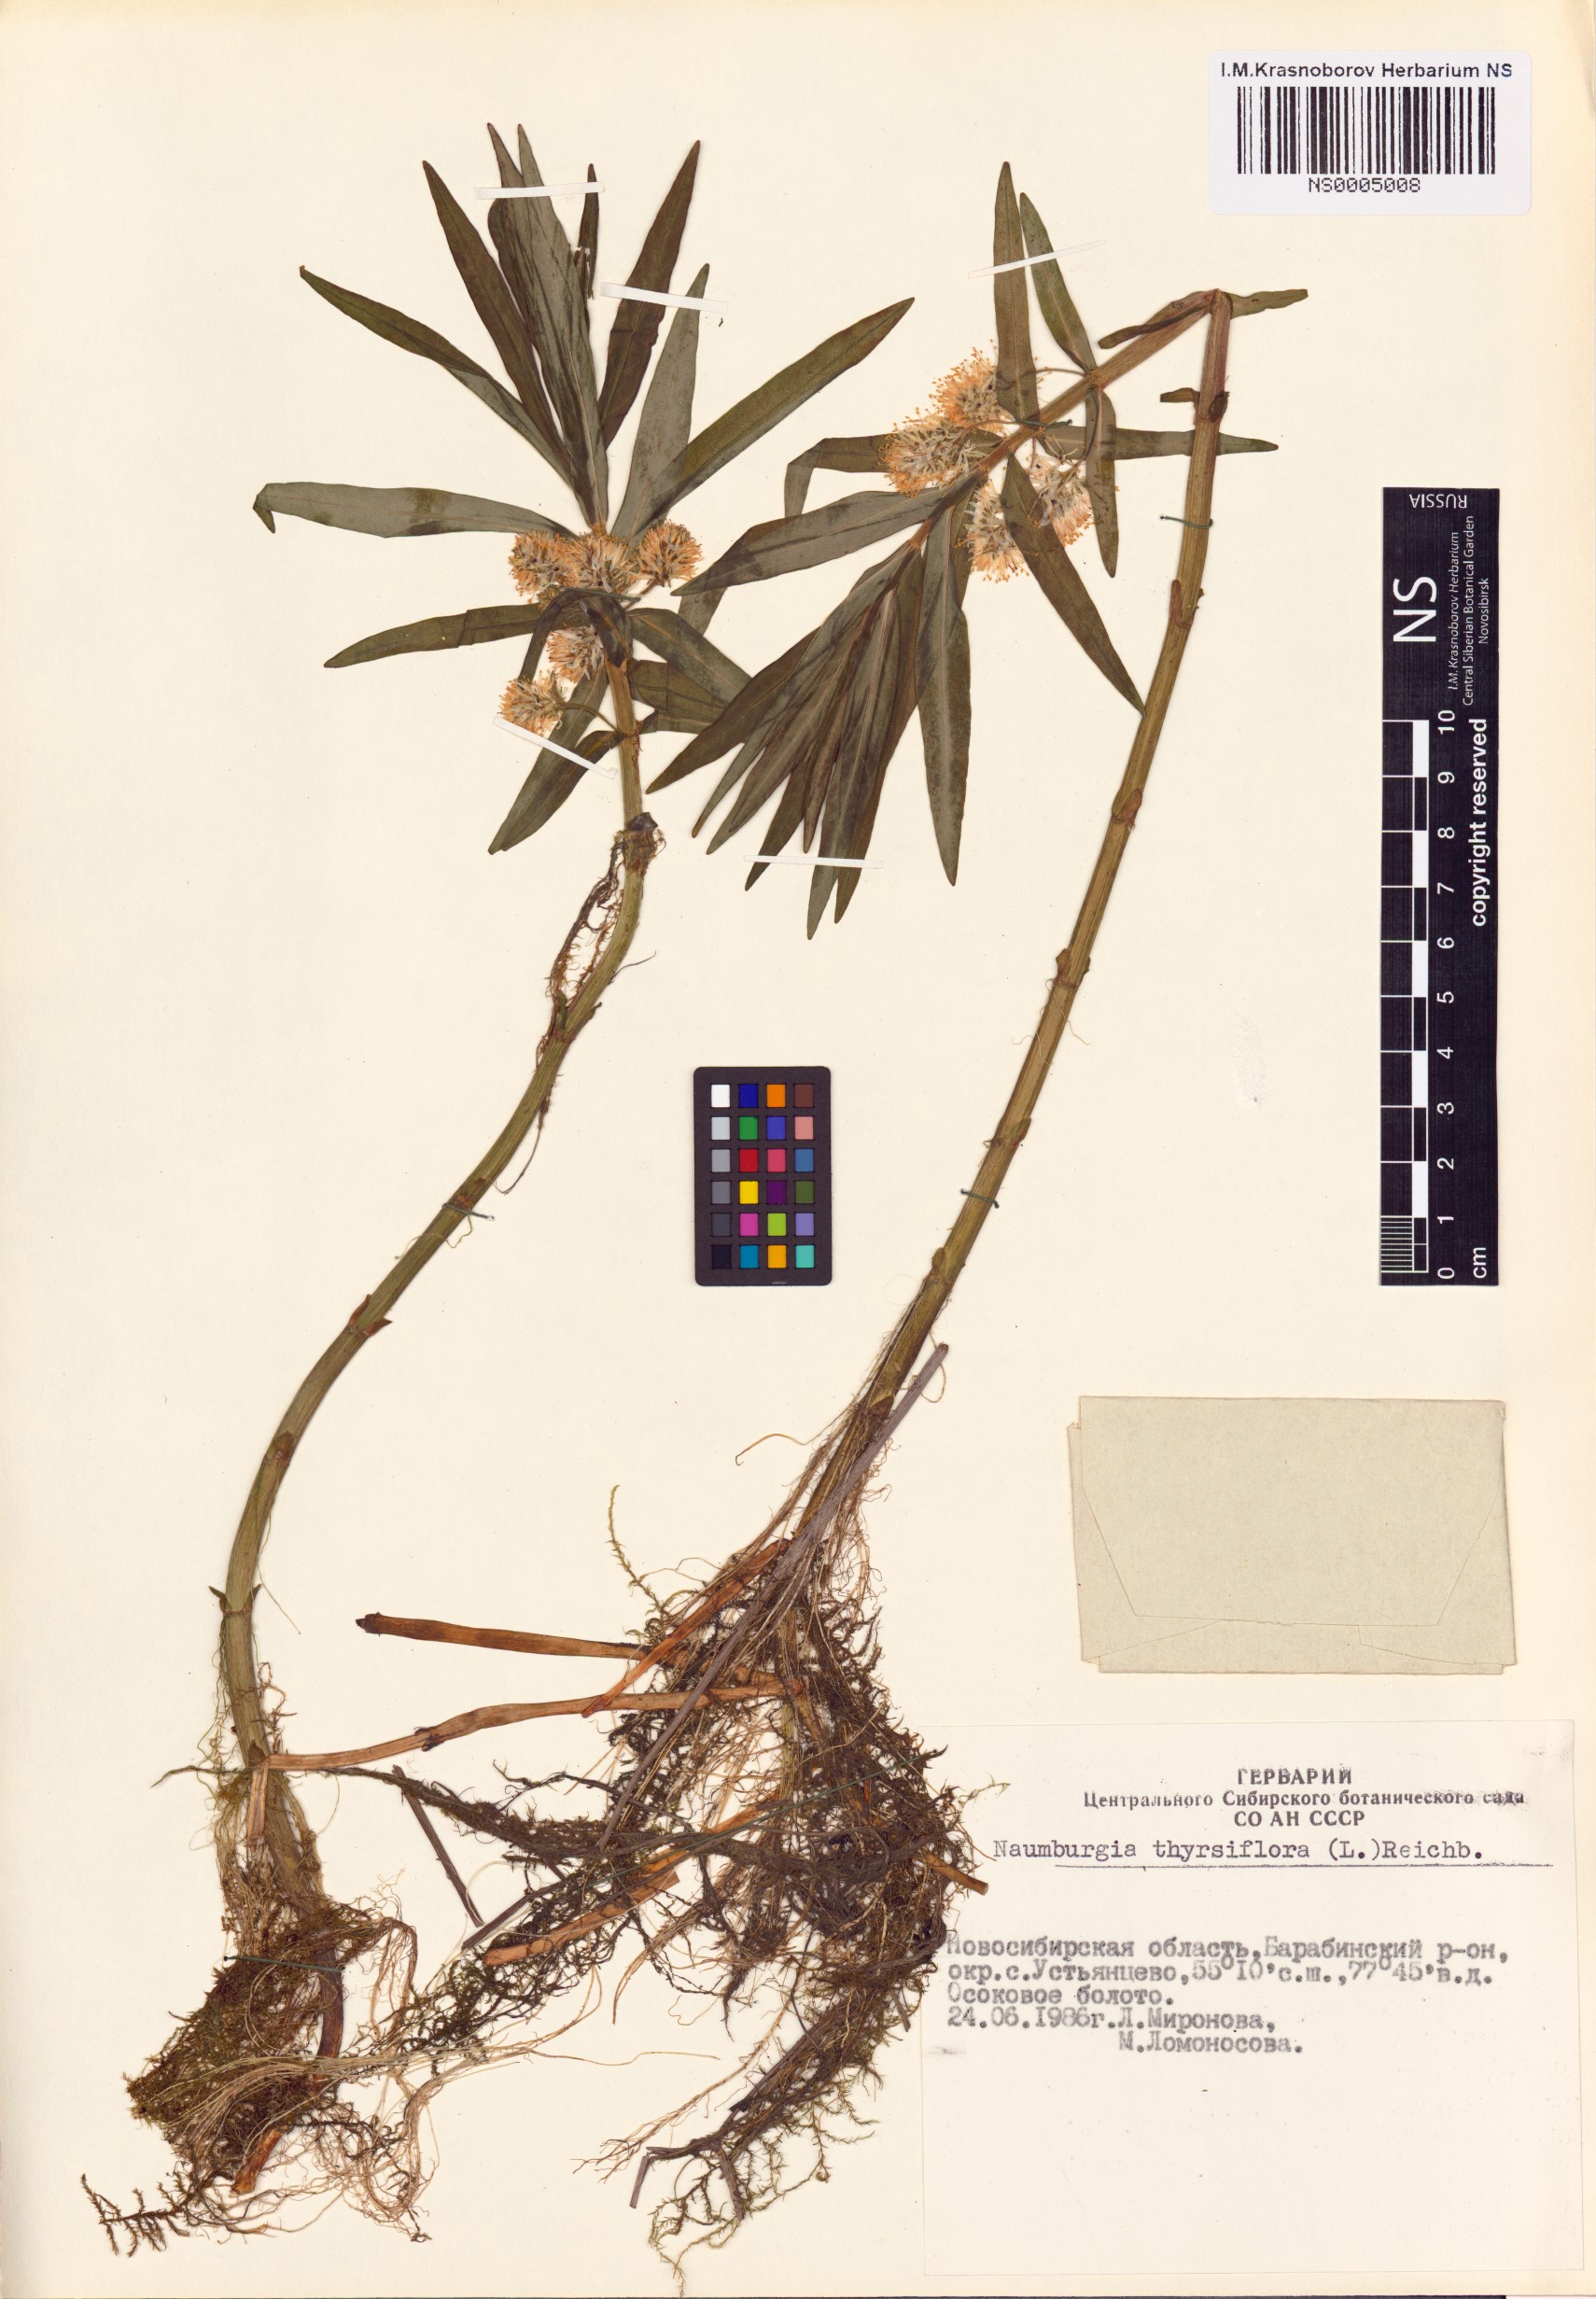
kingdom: Plantae
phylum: Tracheophyta
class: Magnoliopsida
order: Ericales
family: Primulaceae
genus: Lysimachia
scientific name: Lysimachia thyrsiflora
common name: Tufted loosestrife
